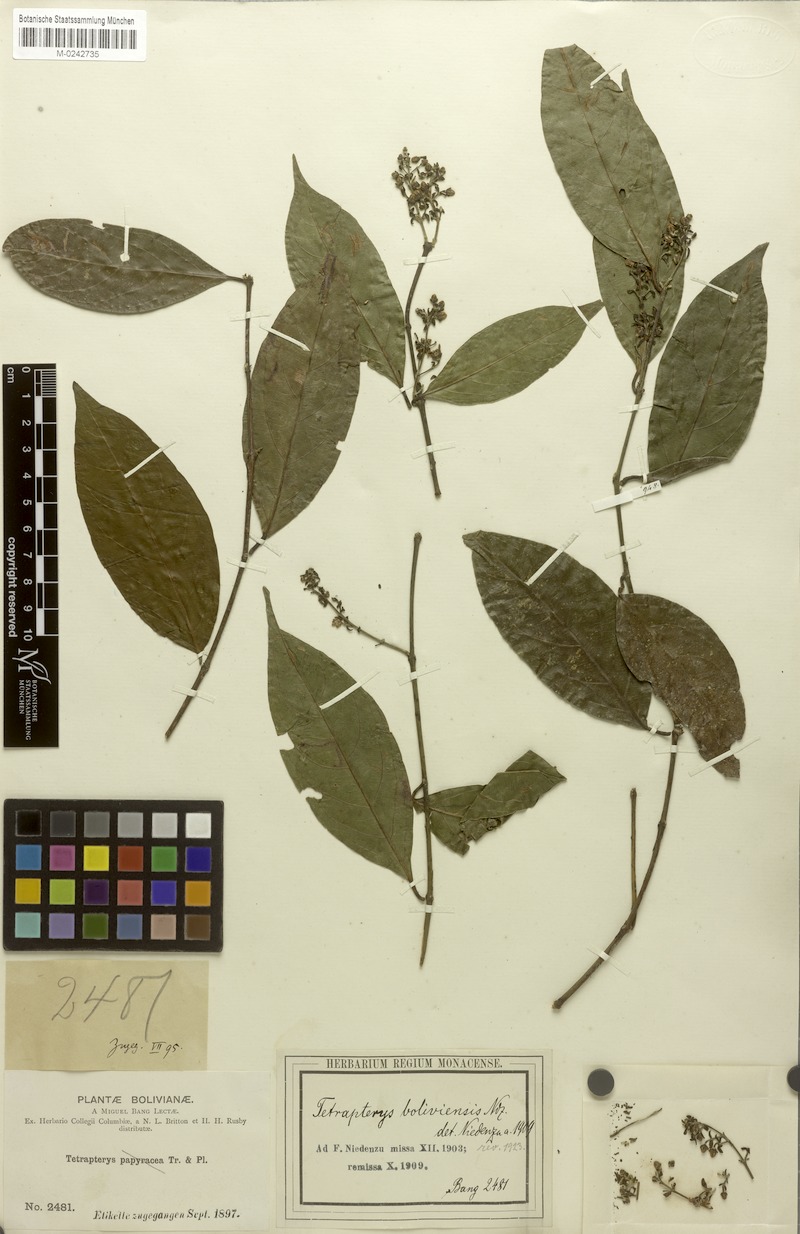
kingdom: Plantae
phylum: Tracheophyta
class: Magnoliopsida
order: Malpighiales
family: Malpighiaceae
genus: Glicophyllum
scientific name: Glicophyllum stylopterum
